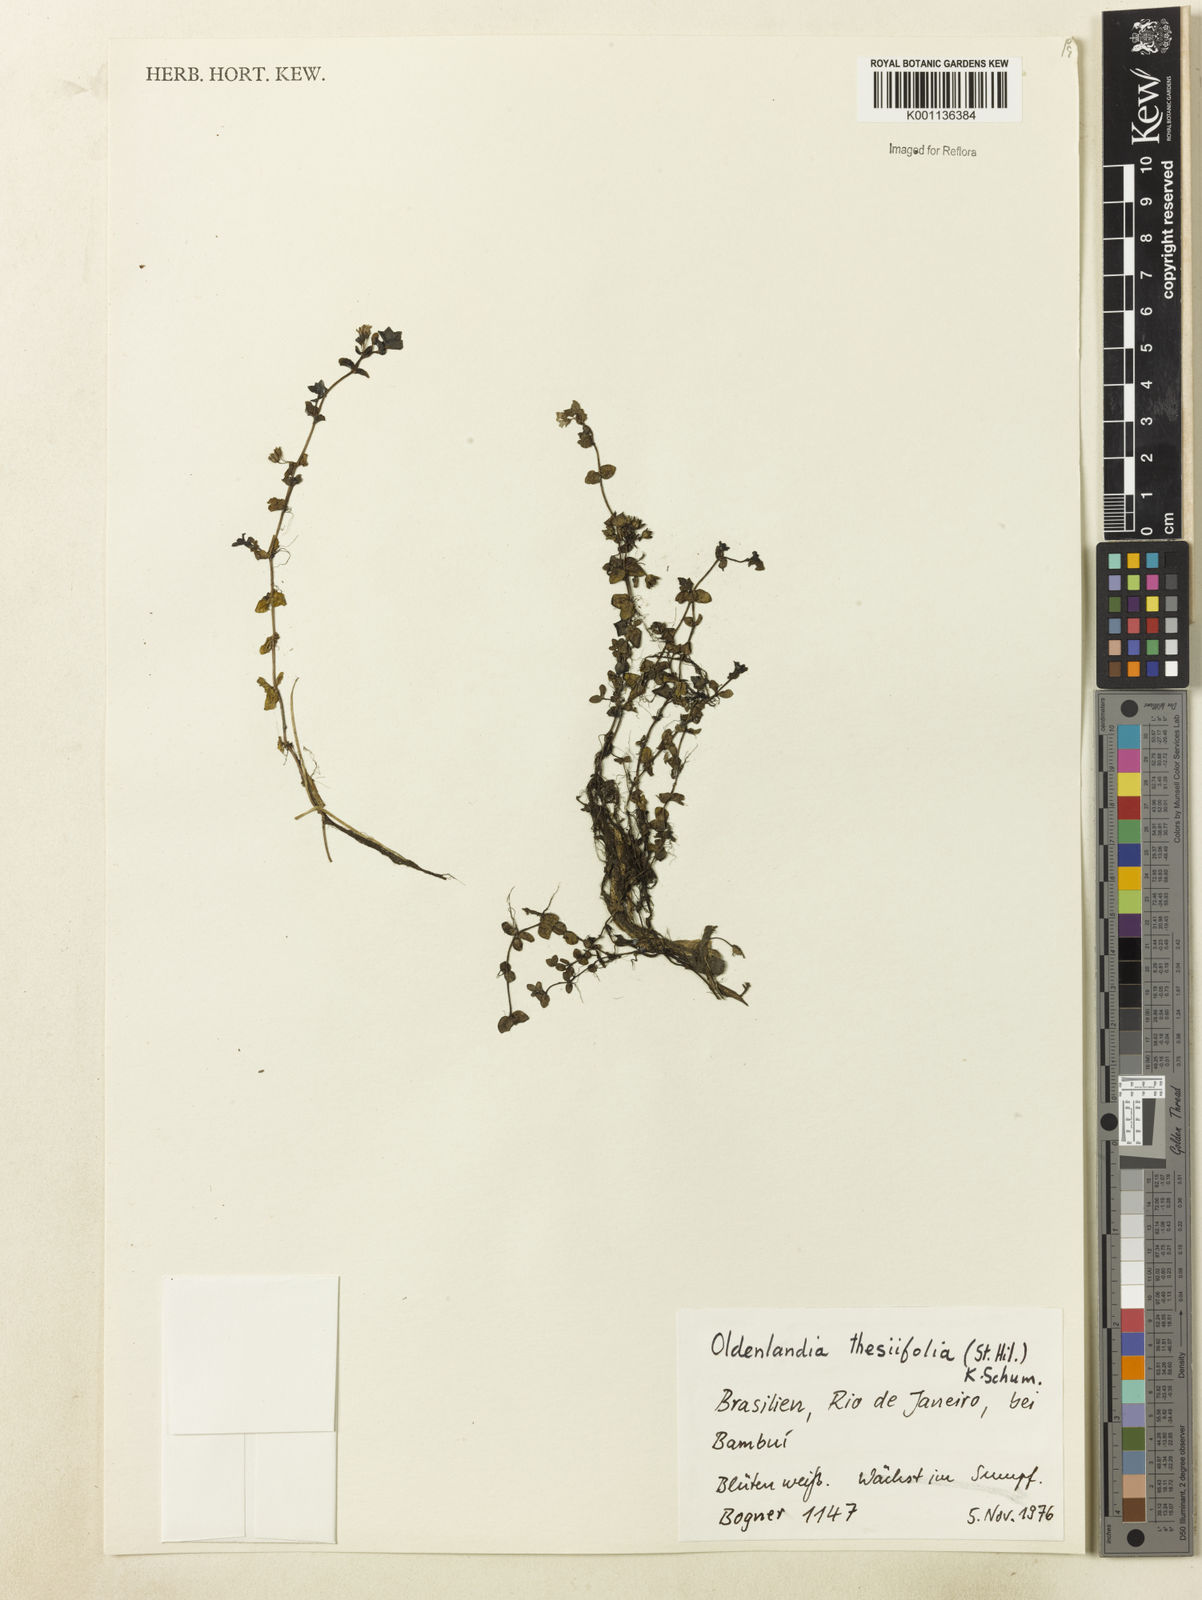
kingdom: Plantae
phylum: Tracheophyta
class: Magnoliopsida
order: Gentianales
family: Rubiaceae
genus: Oldenlandia
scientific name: Oldenlandia salzmannii
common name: Salzmann's mille graines
